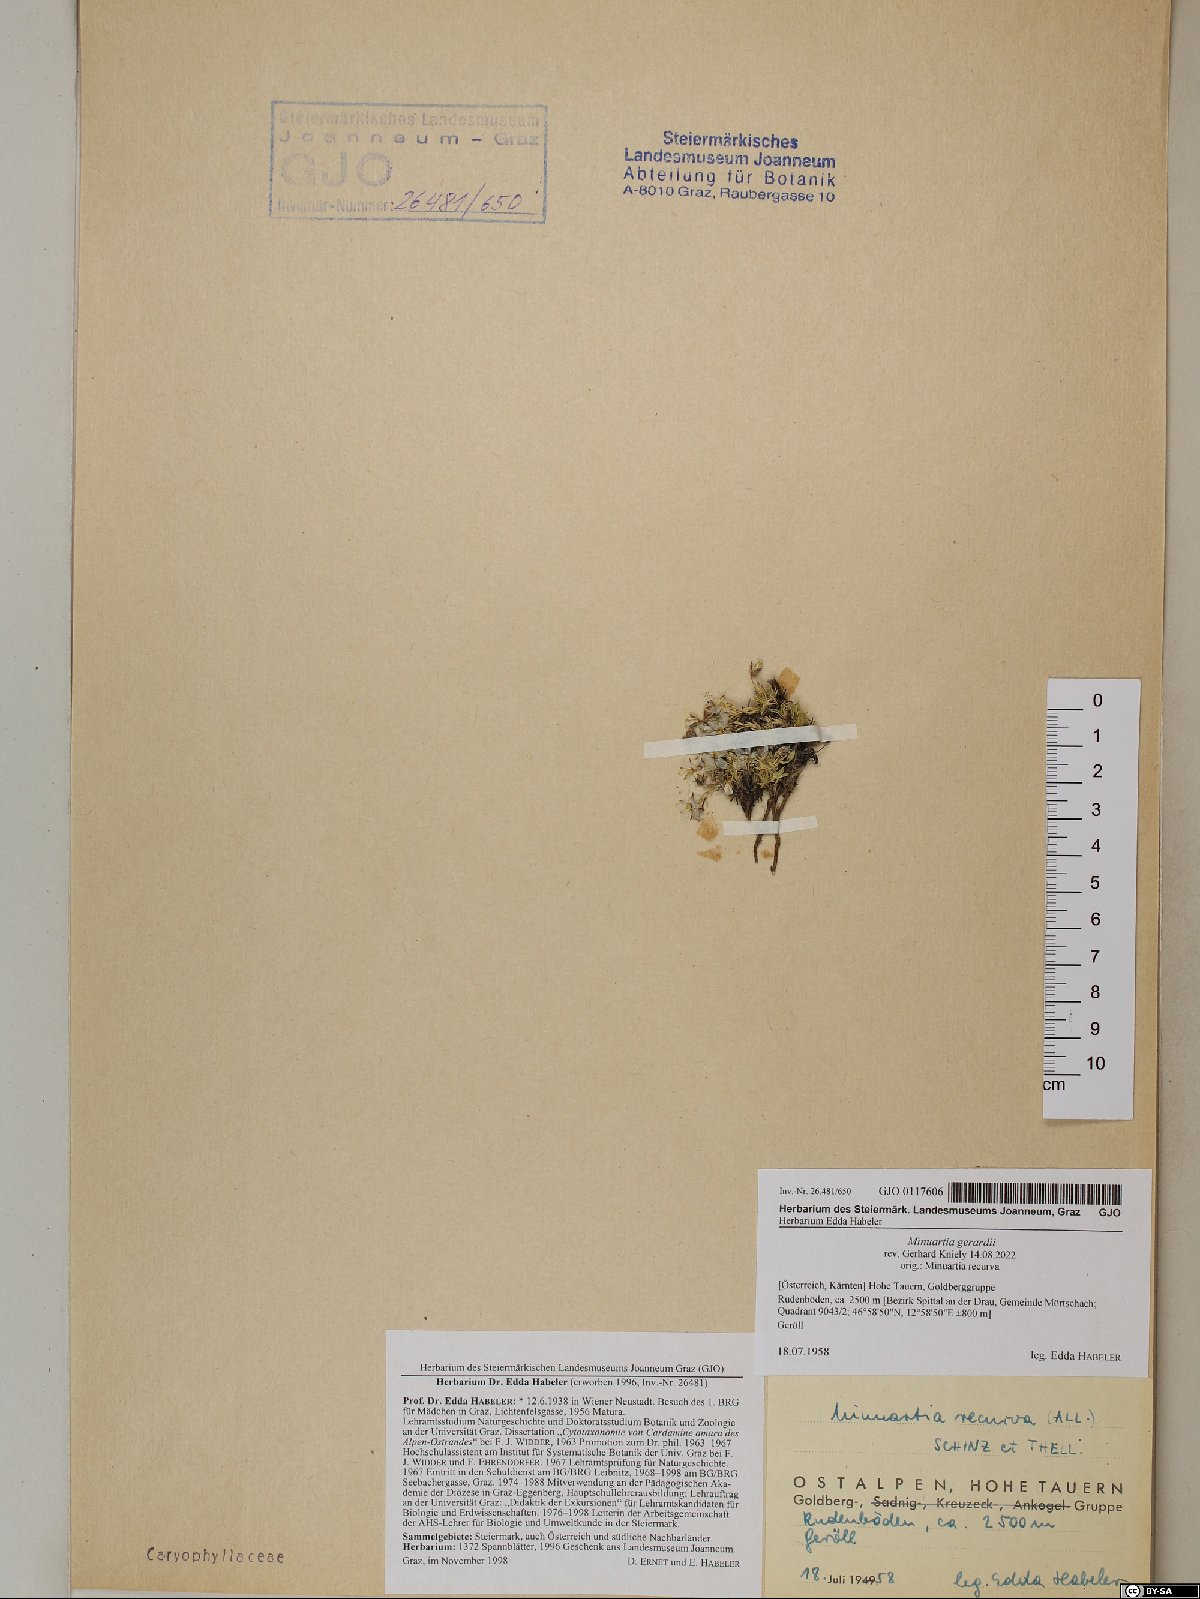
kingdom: Plantae
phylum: Tracheophyta
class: Magnoliopsida
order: Caryophyllales
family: Caryophyllaceae
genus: Sabulina
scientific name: Sabulina verna
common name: Spring sandwort
